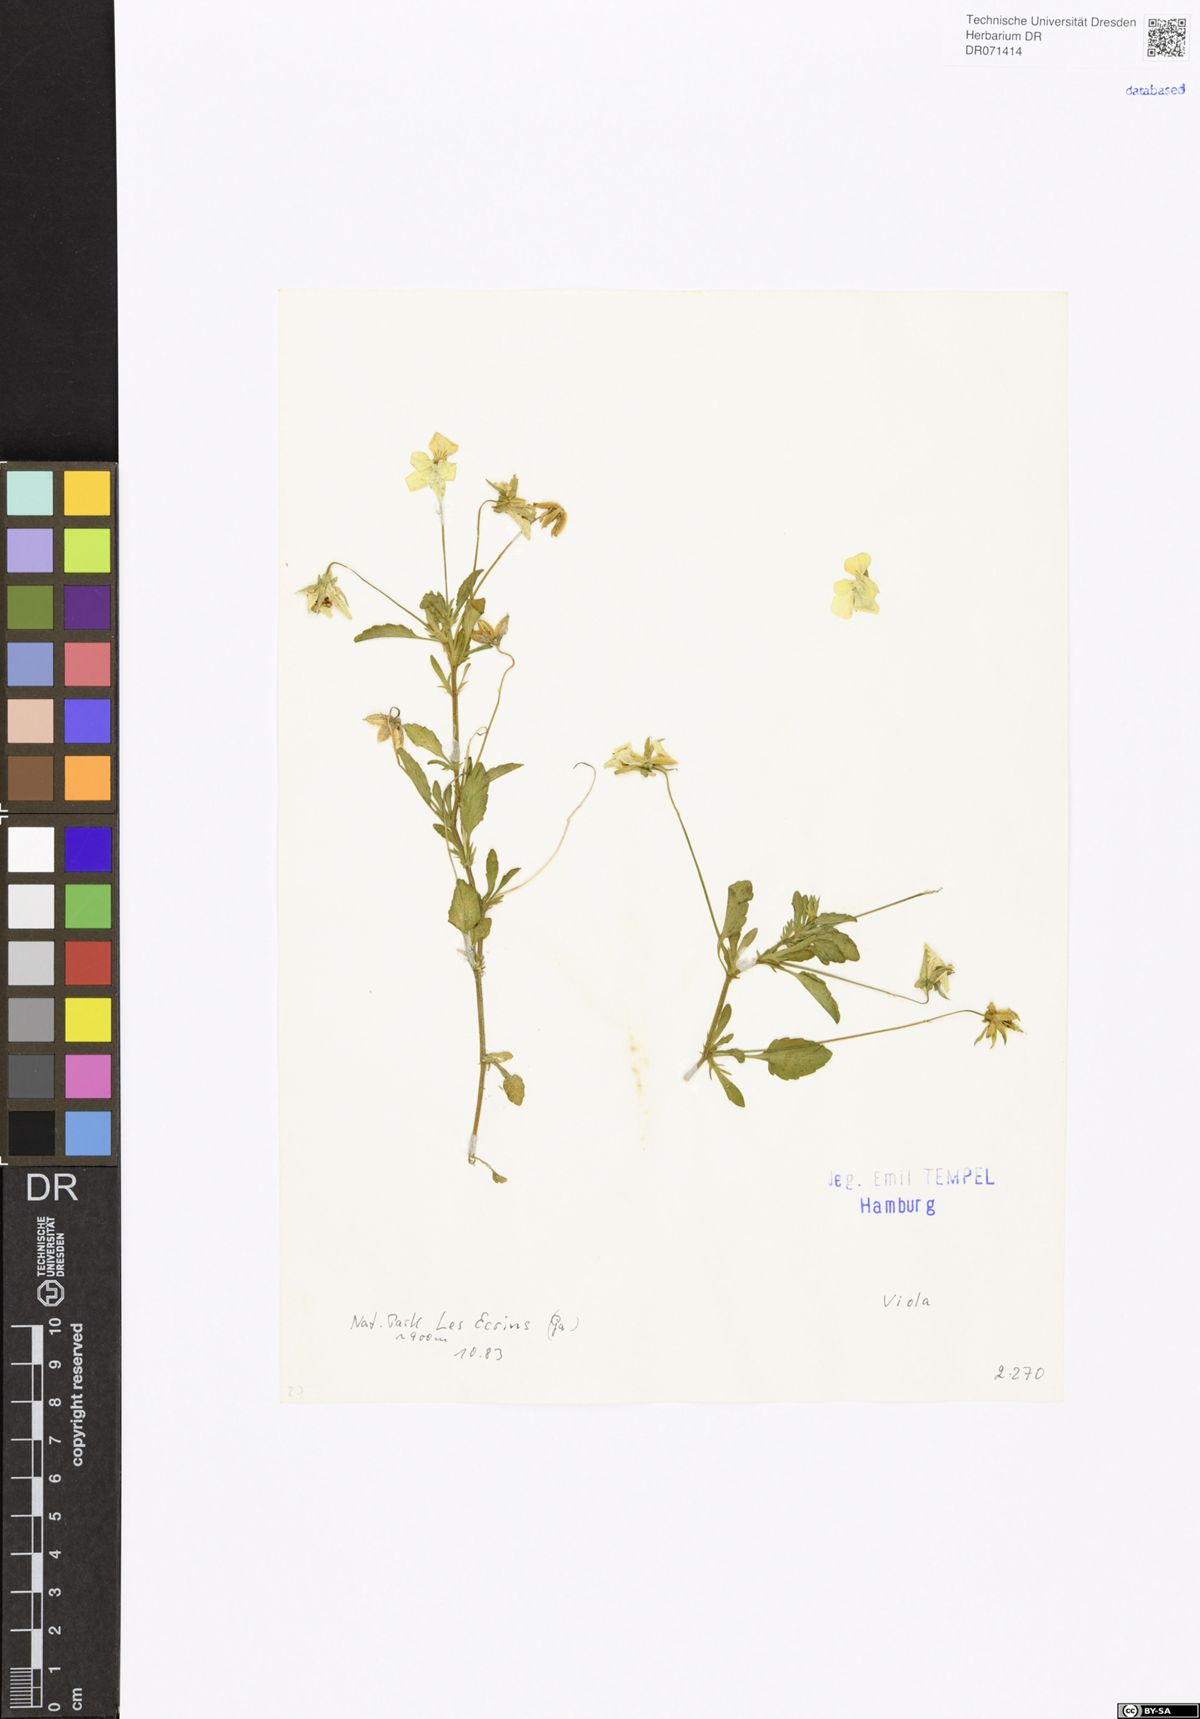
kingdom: Plantae
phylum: Tracheophyta
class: Magnoliopsida
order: Malpighiales
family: Violaceae
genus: Viola
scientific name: Viola
